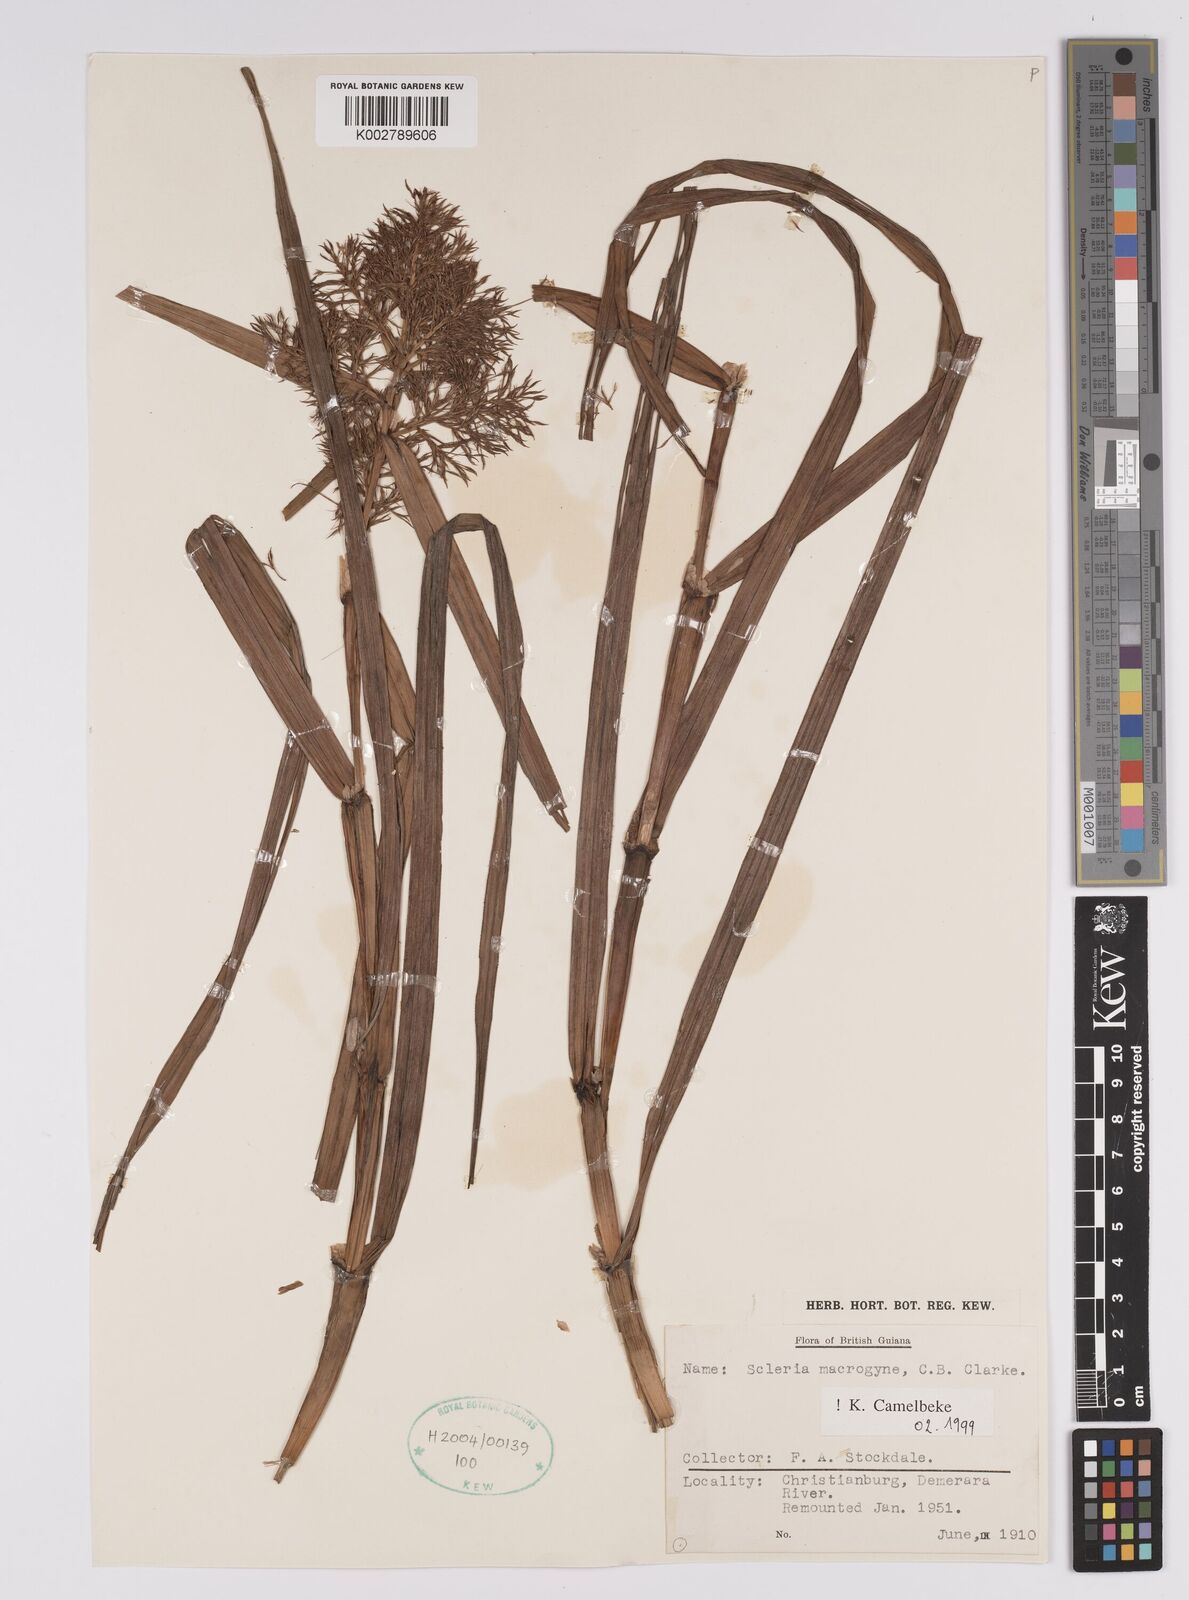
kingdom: Plantae
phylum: Tracheophyta
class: Liliopsida
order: Poales
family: Cyperaceae
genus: Scleria
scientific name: Scleria macrogyne
